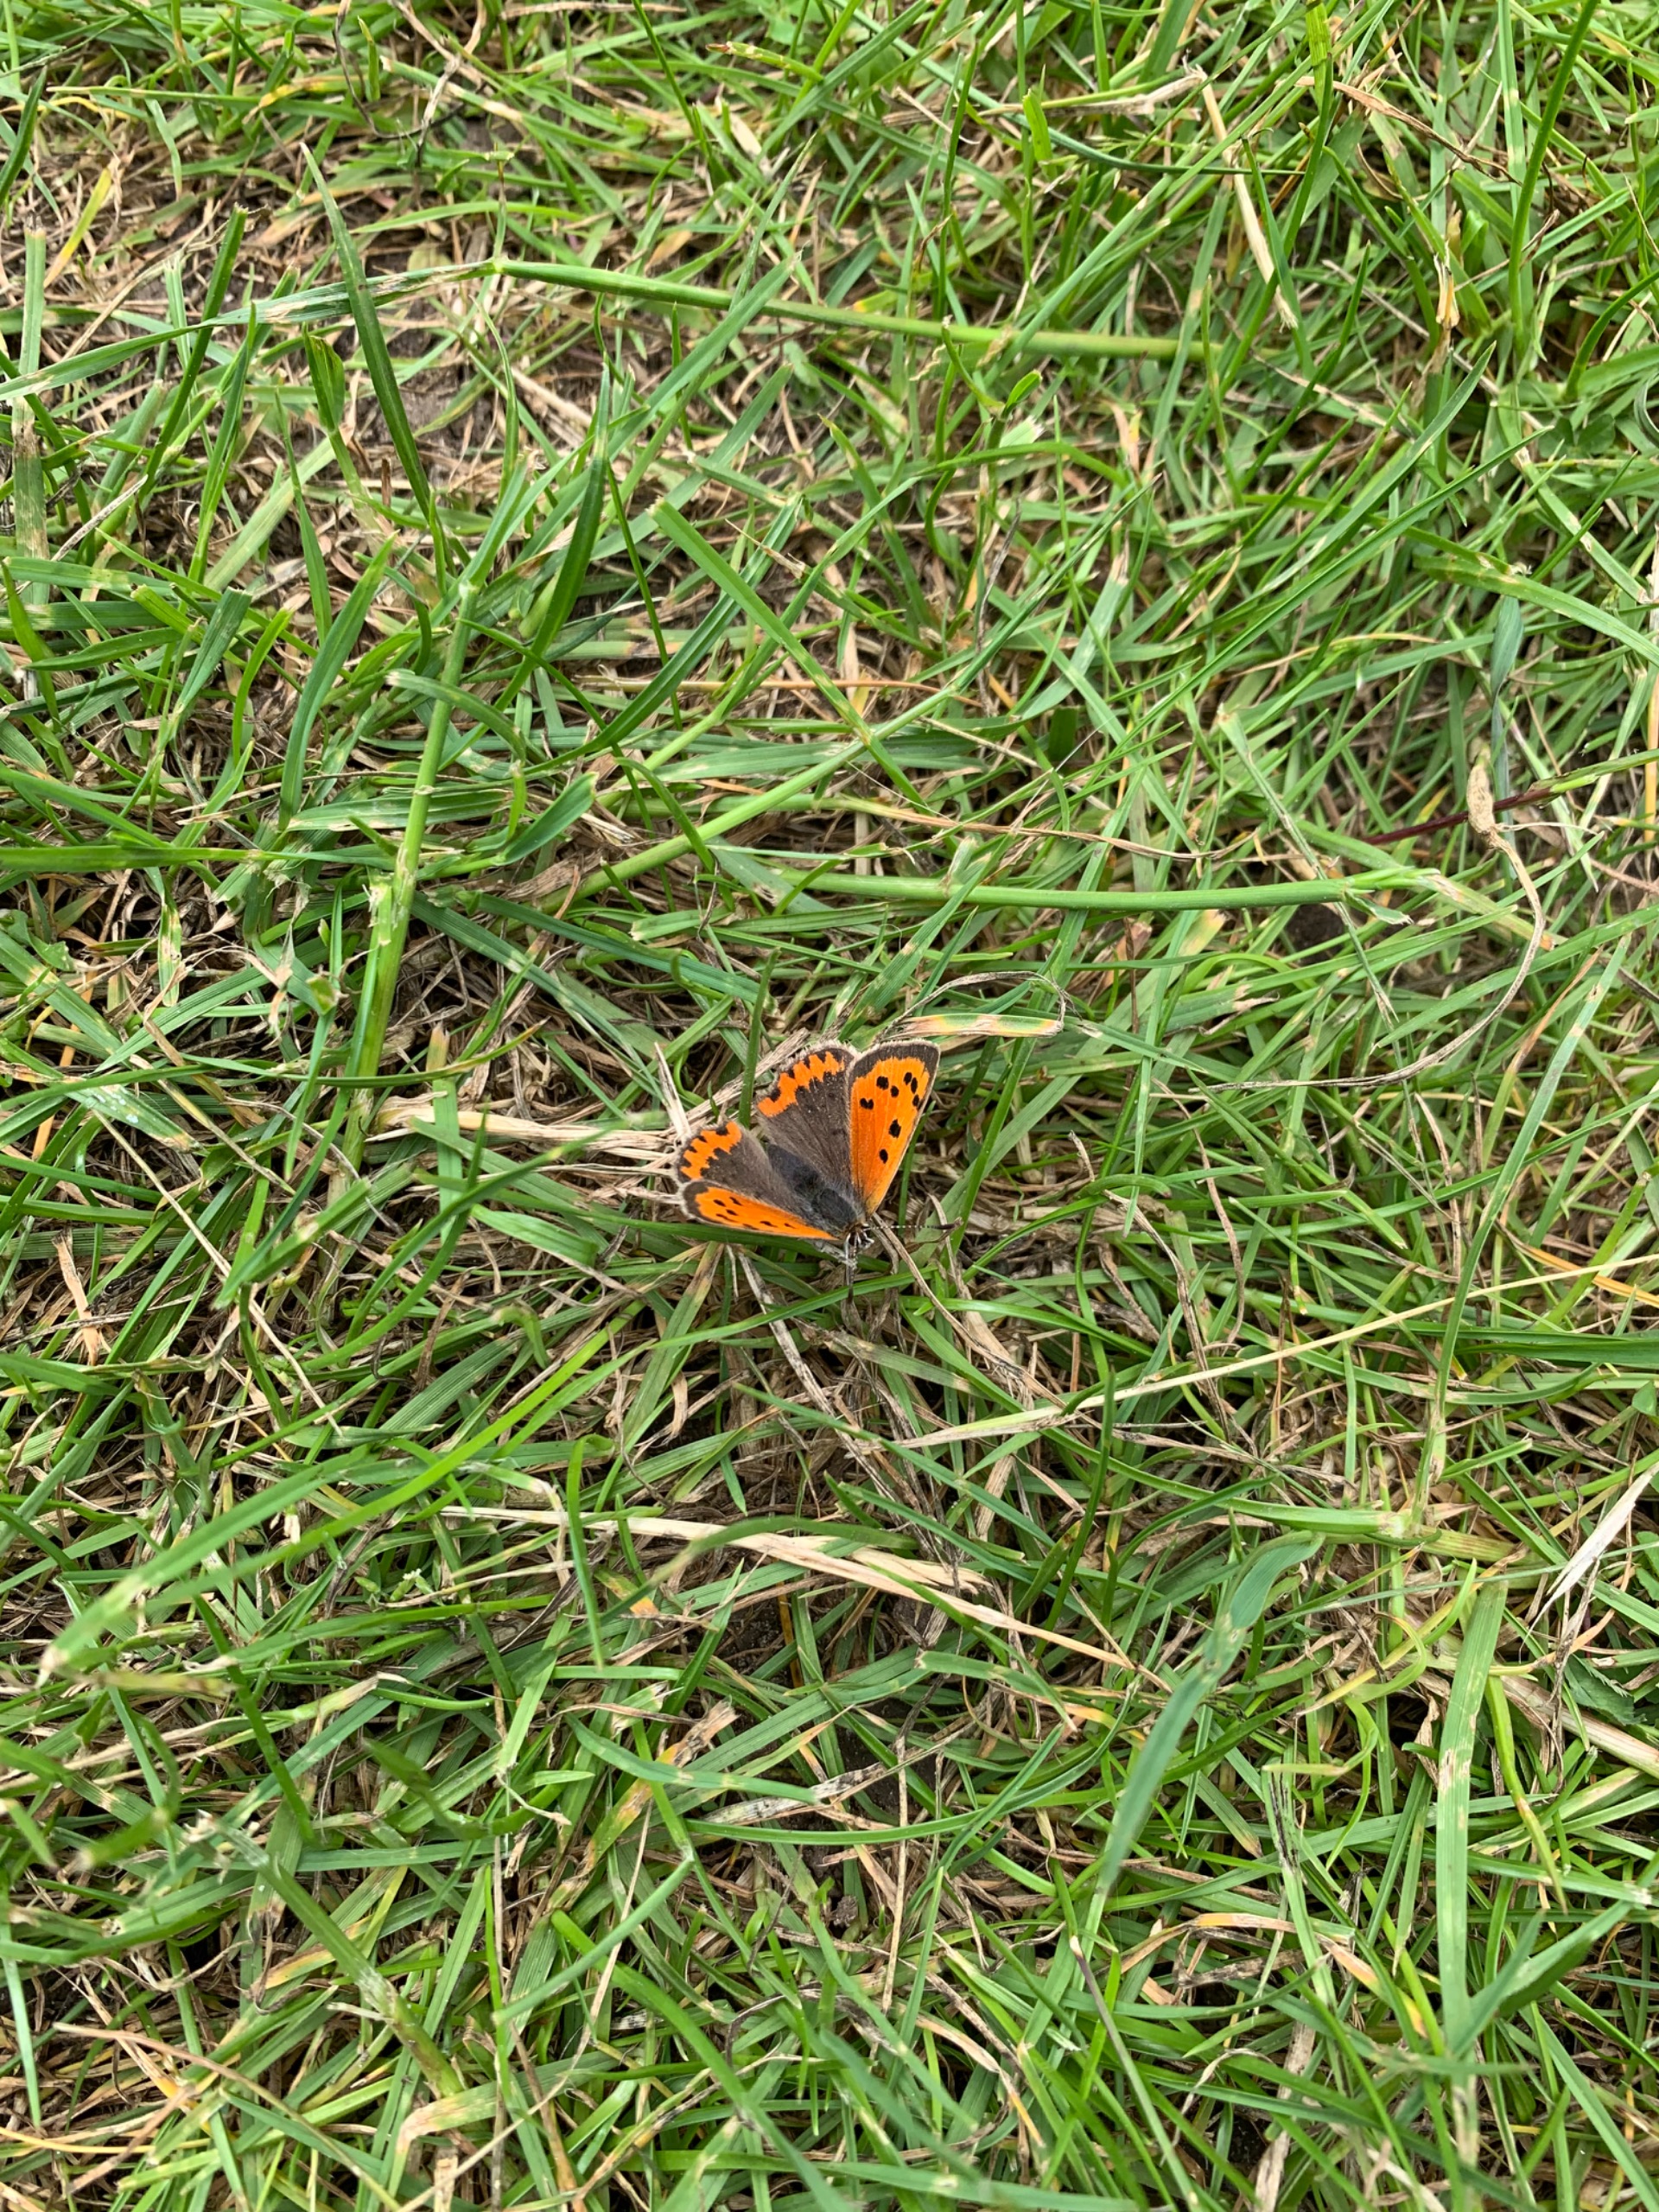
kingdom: Animalia
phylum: Arthropoda
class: Insecta
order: Lepidoptera
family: Lycaenidae
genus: Lycaena
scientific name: Lycaena phlaeas
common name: Lille ildfugl
